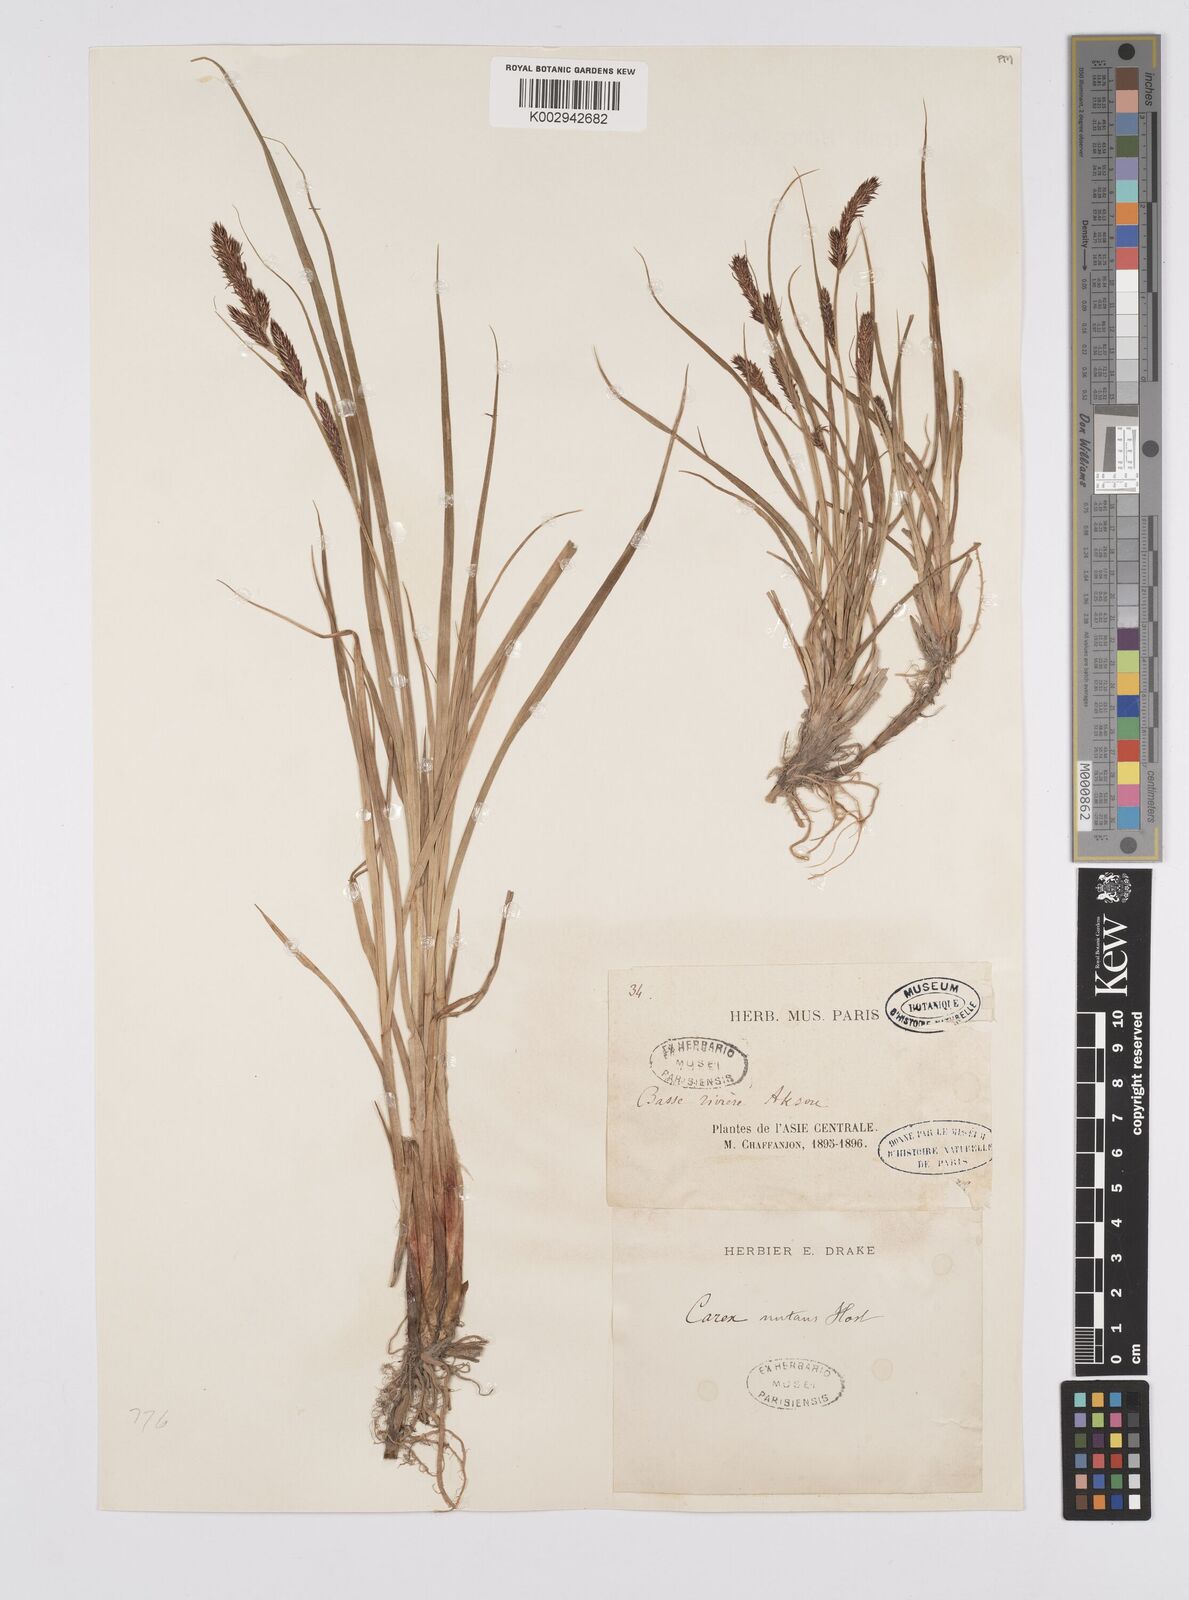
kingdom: Plantae
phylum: Tracheophyta
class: Liliopsida
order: Poales
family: Cyperaceae
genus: Carex
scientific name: Carex melanostachya
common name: Black-spiked sedge
